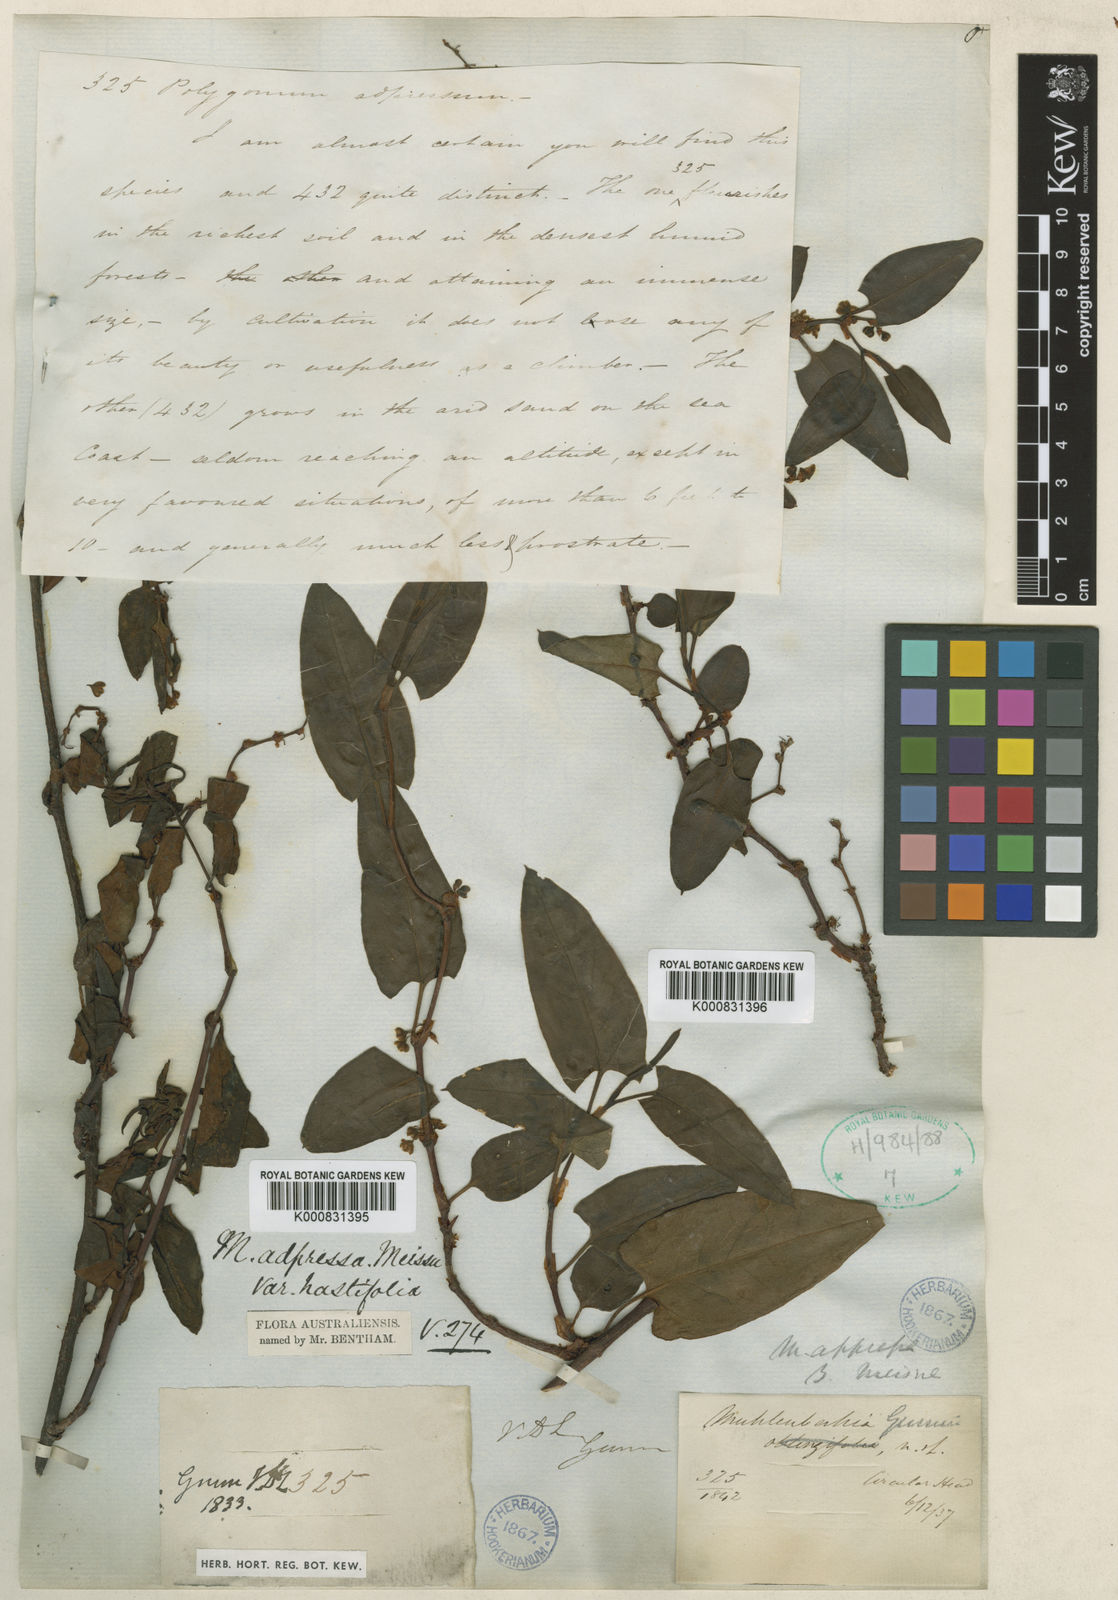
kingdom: Plantae
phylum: Tracheophyta
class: Magnoliopsida
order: Caryophyllales
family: Polygonaceae
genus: Muehlenbeckia
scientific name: Muehlenbeckia gunnii
